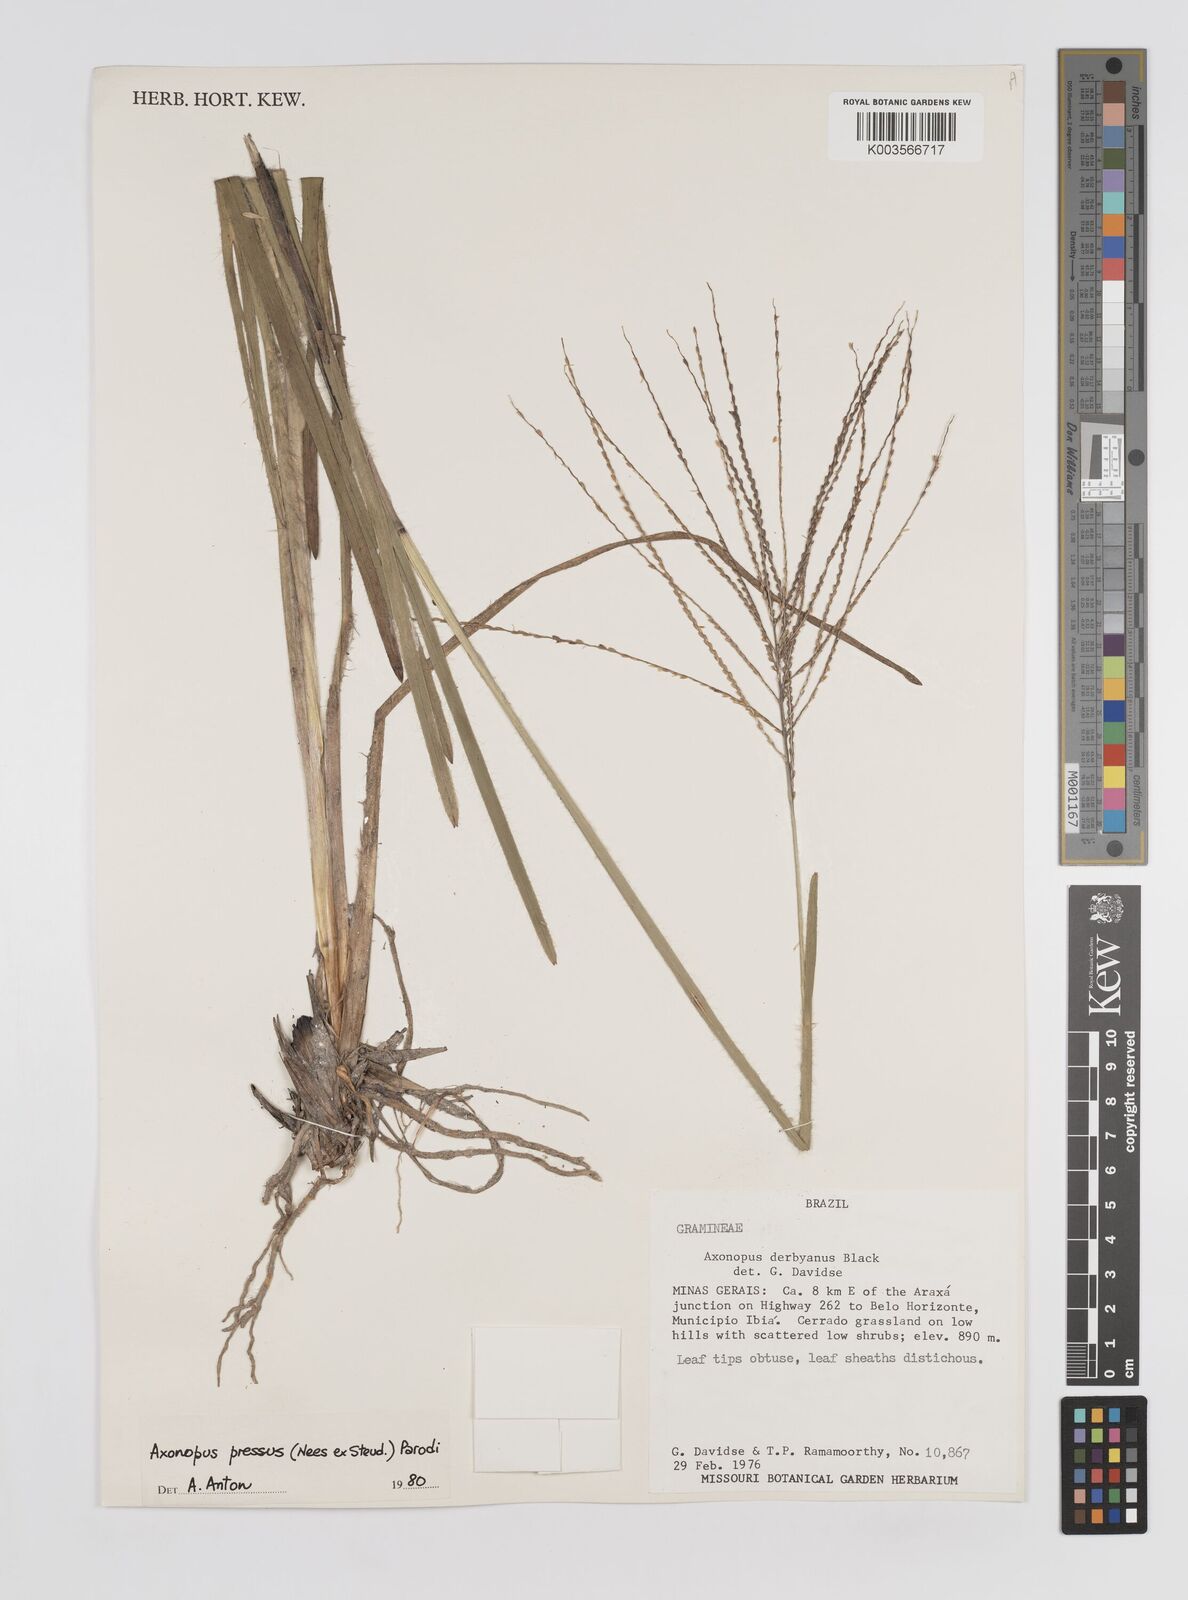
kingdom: Plantae
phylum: Tracheophyta
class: Liliopsida
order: Poales
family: Poaceae
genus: Axonopus
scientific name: Axonopus pressus
